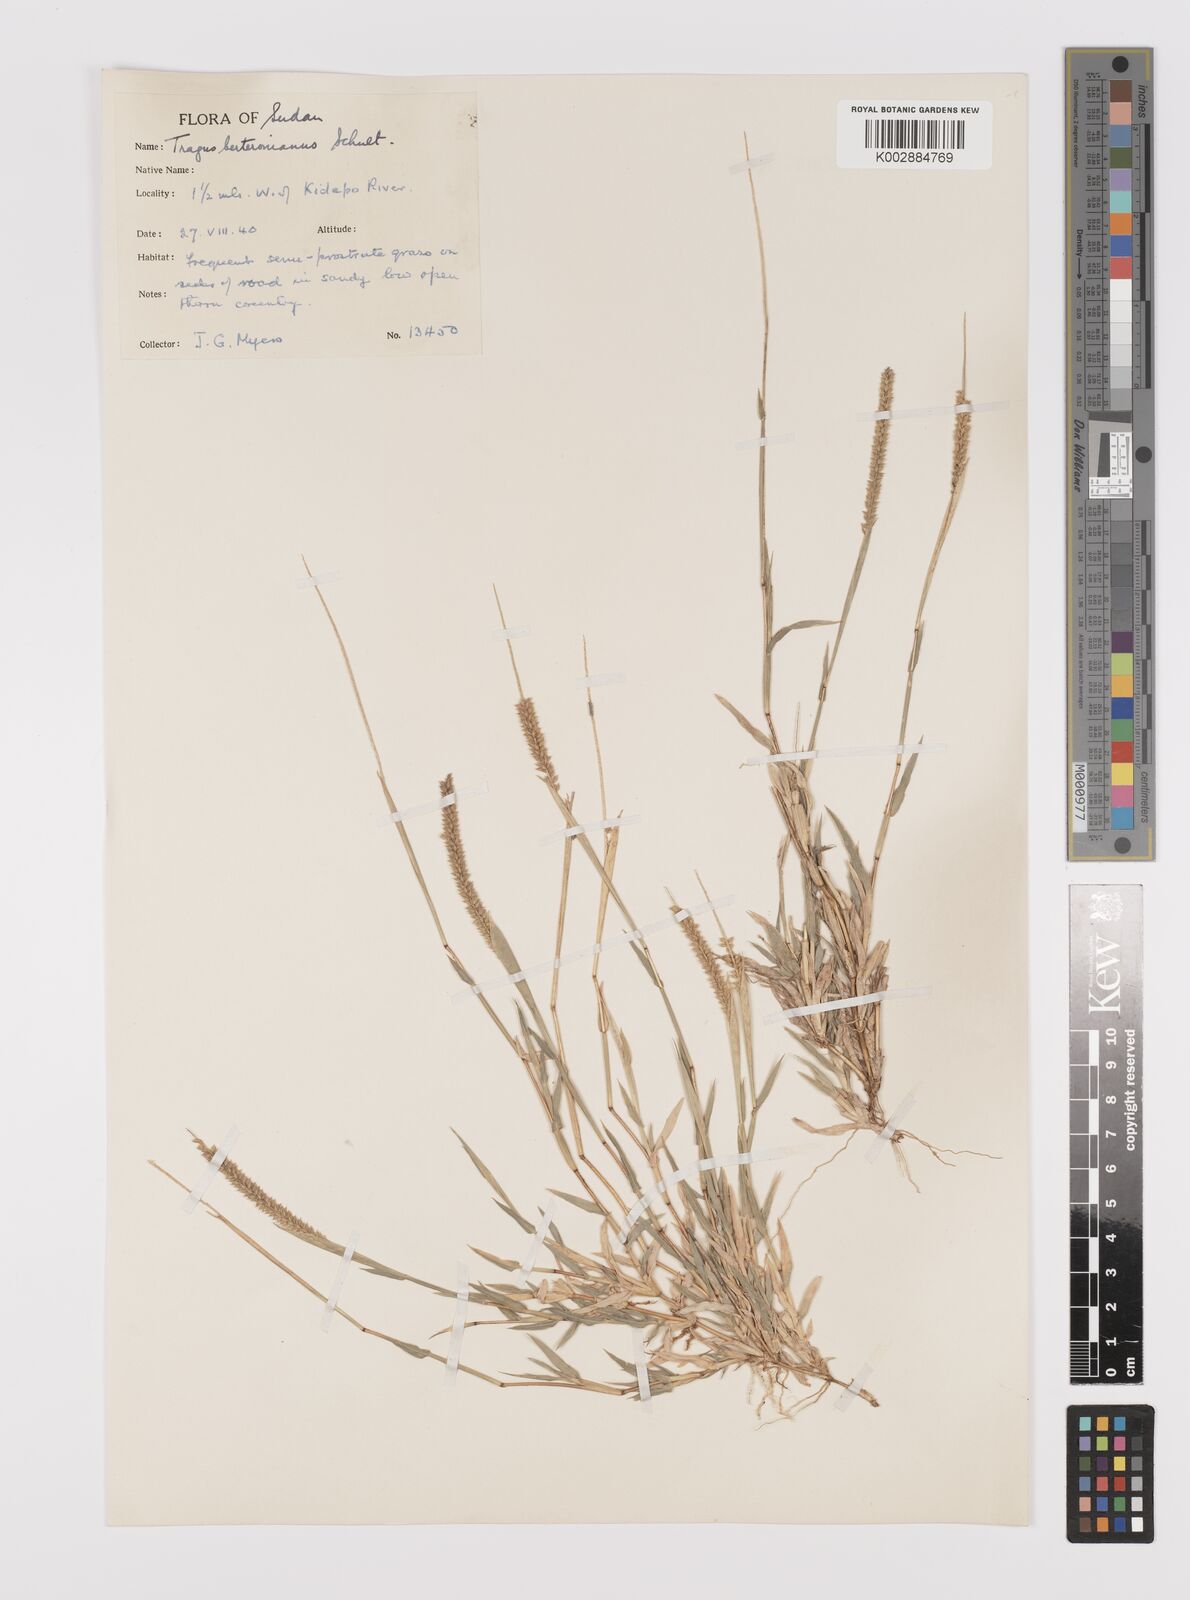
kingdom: Plantae
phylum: Tracheophyta
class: Liliopsida
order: Poales
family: Poaceae
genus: Tragus
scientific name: Tragus berteronianus
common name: African bur-grass
